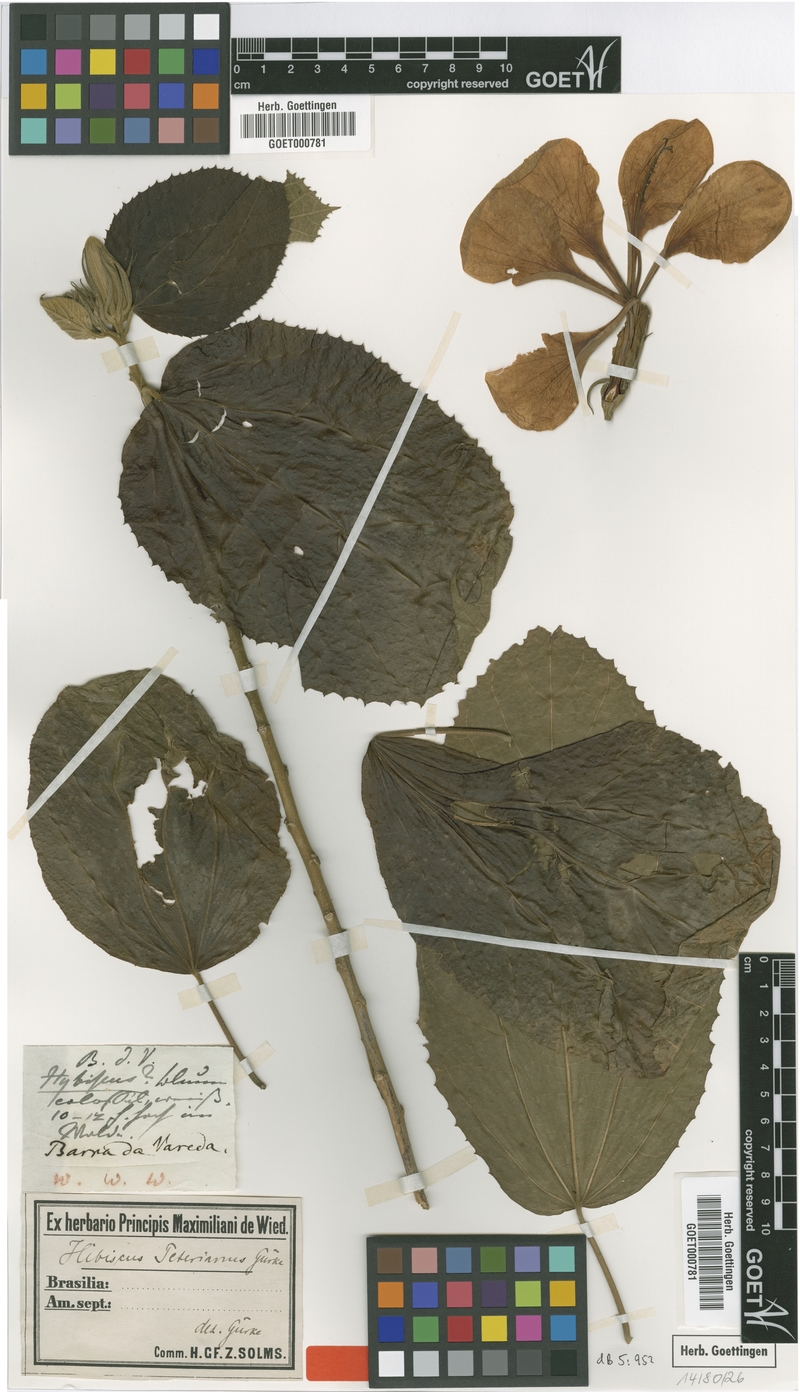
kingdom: Plantae
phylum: Tracheophyta
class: Magnoliopsida
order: Malvales
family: Malvaceae
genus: Hibiscus
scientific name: Hibiscus peterianus
